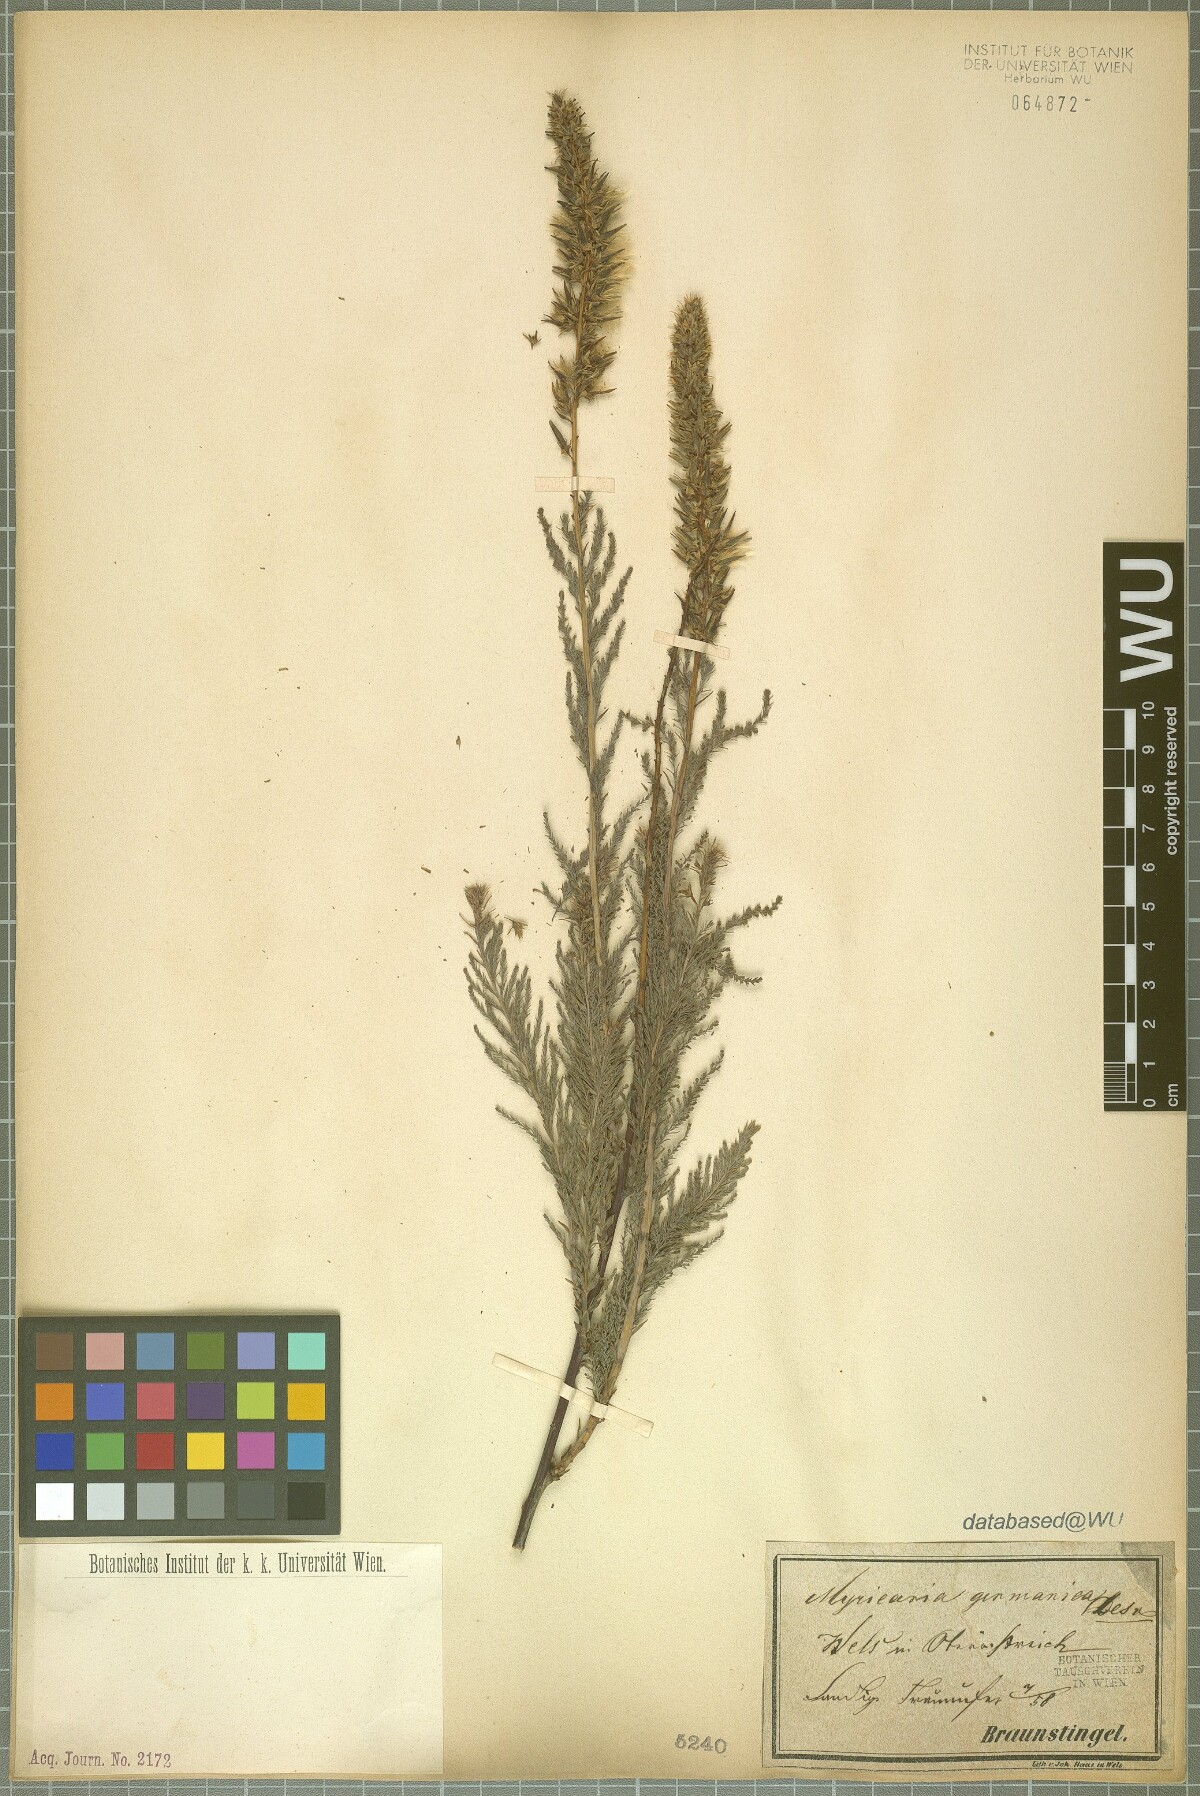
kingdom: Plantae
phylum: Tracheophyta
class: Magnoliopsida
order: Caryophyllales
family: Tamaricaceae
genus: Myricaria
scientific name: Myricaria germanica
